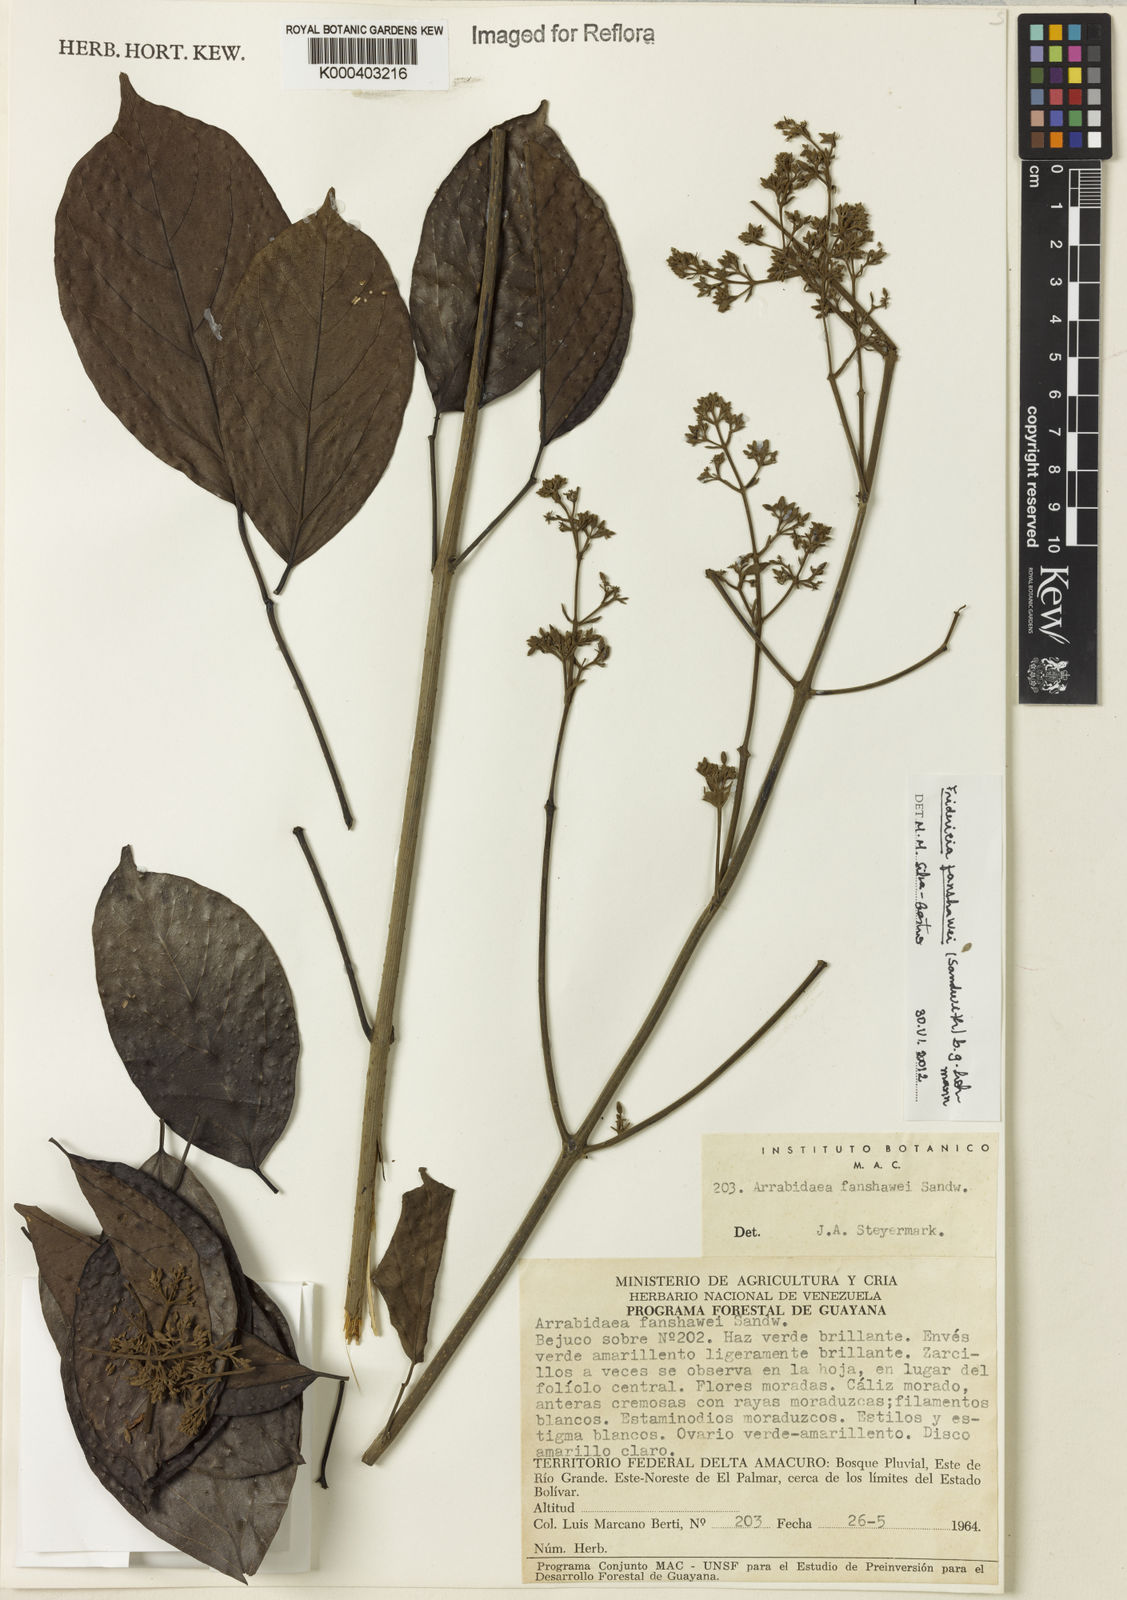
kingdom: Plantae
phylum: Tracheophyta
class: Magnoliopsida
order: Lamiales
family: Bignoniaceae
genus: Fridericia
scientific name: Fridericia fanshawei
